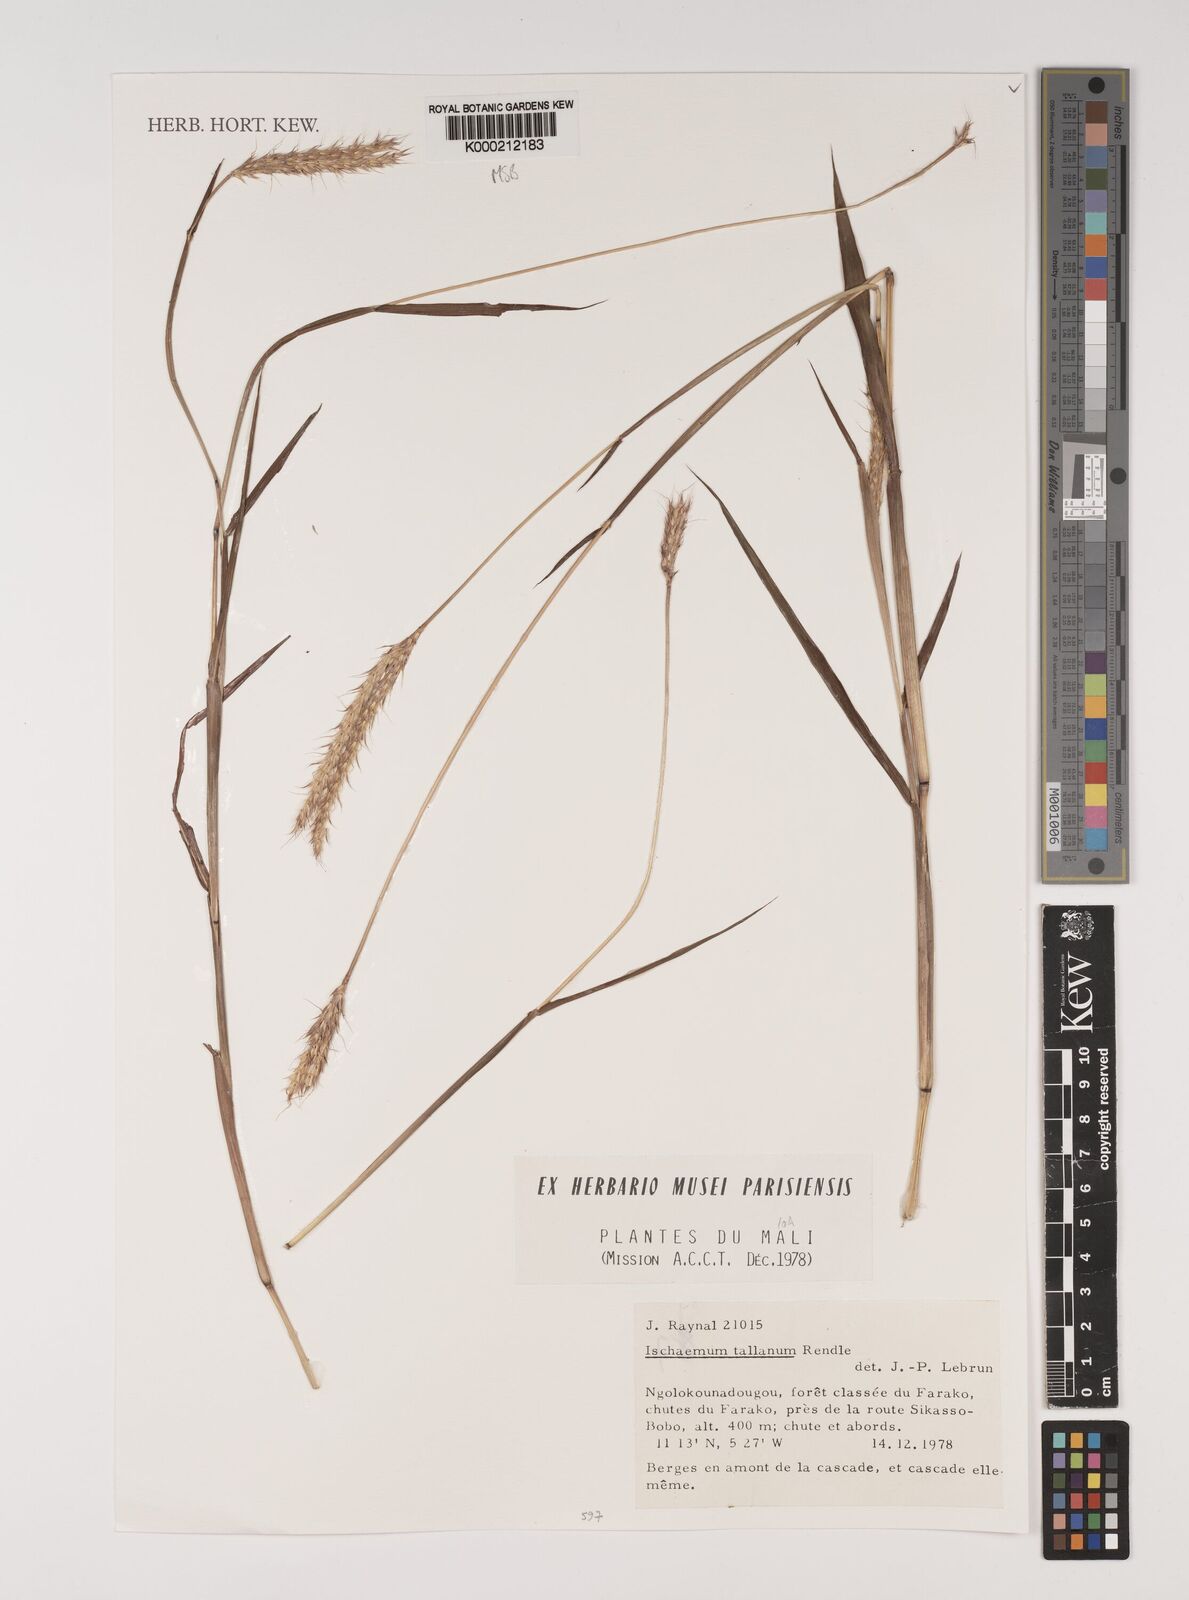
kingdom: Plantae
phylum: Tracheophyta
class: Liliopsida
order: Poales
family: Poaceae
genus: Ischaemum
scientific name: Ischaemum polystachyum
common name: Paddle grass
